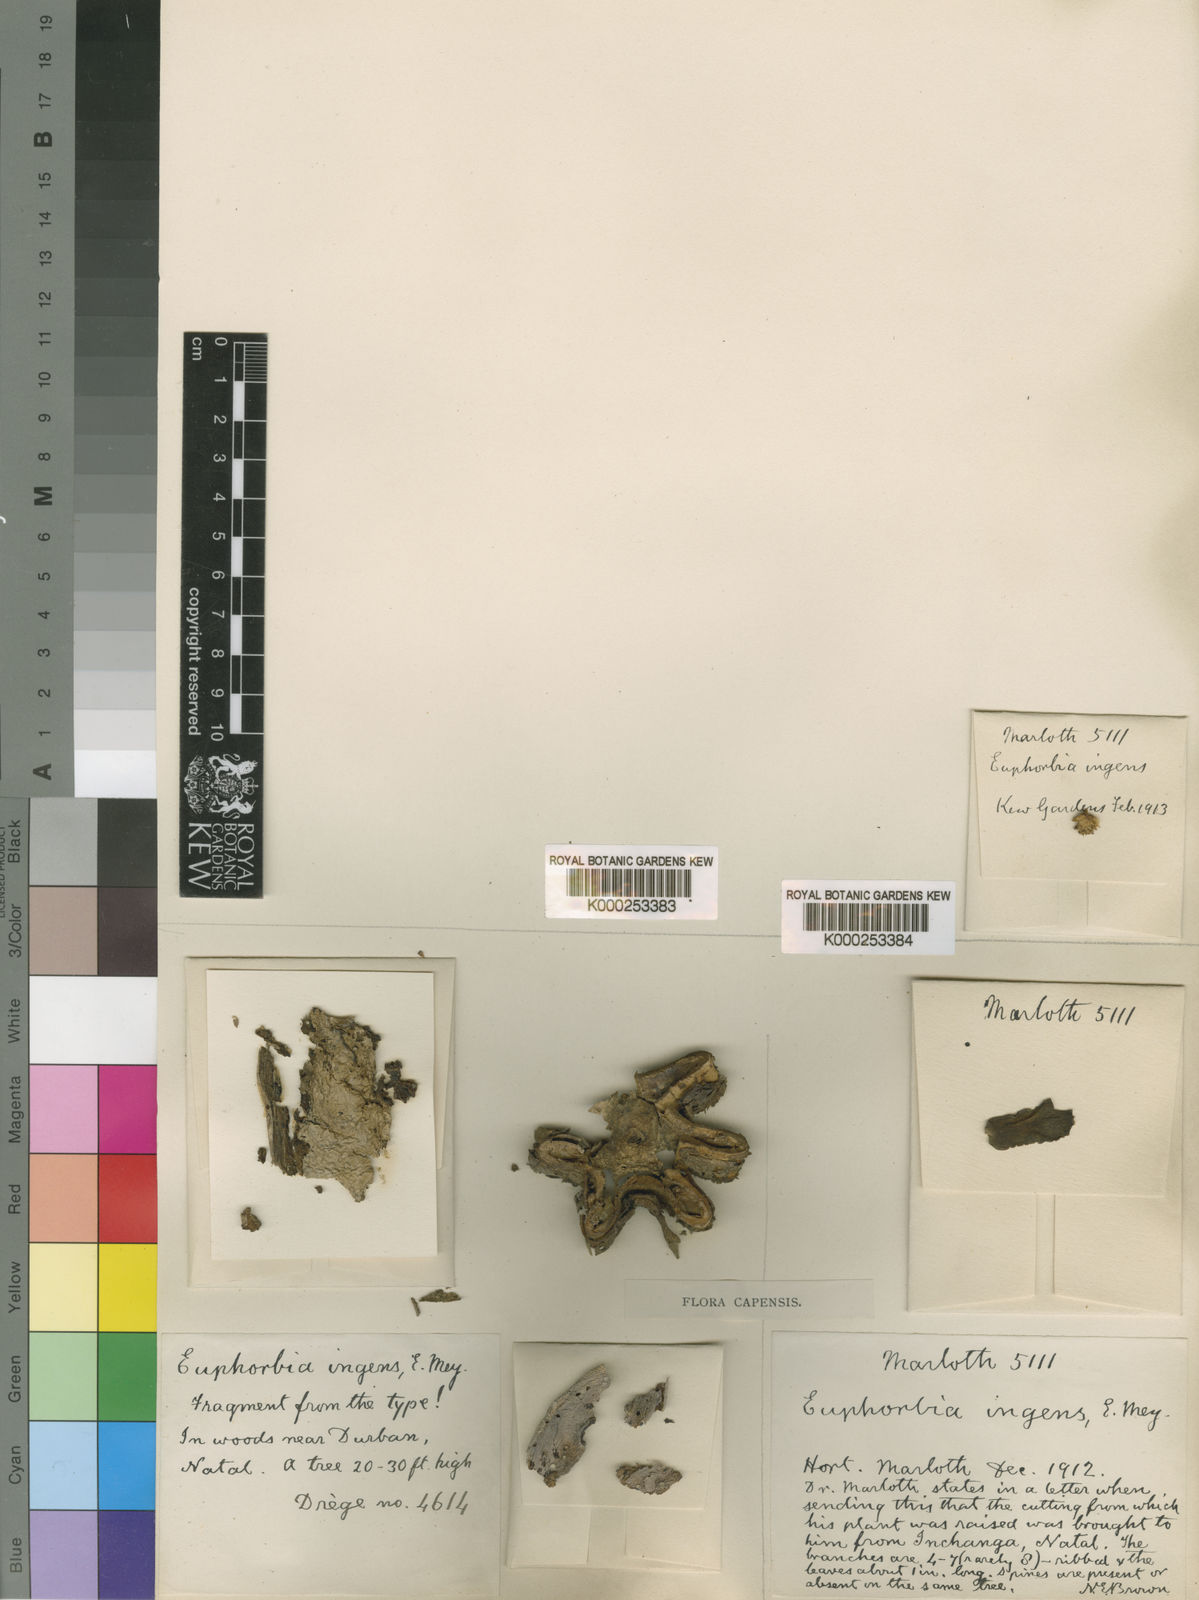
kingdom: Plantae
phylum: Tracheophyta
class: Magnoliopsida
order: Malpighiales
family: Euphorbiaceae
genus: Euphorbia
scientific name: Euphorbia
